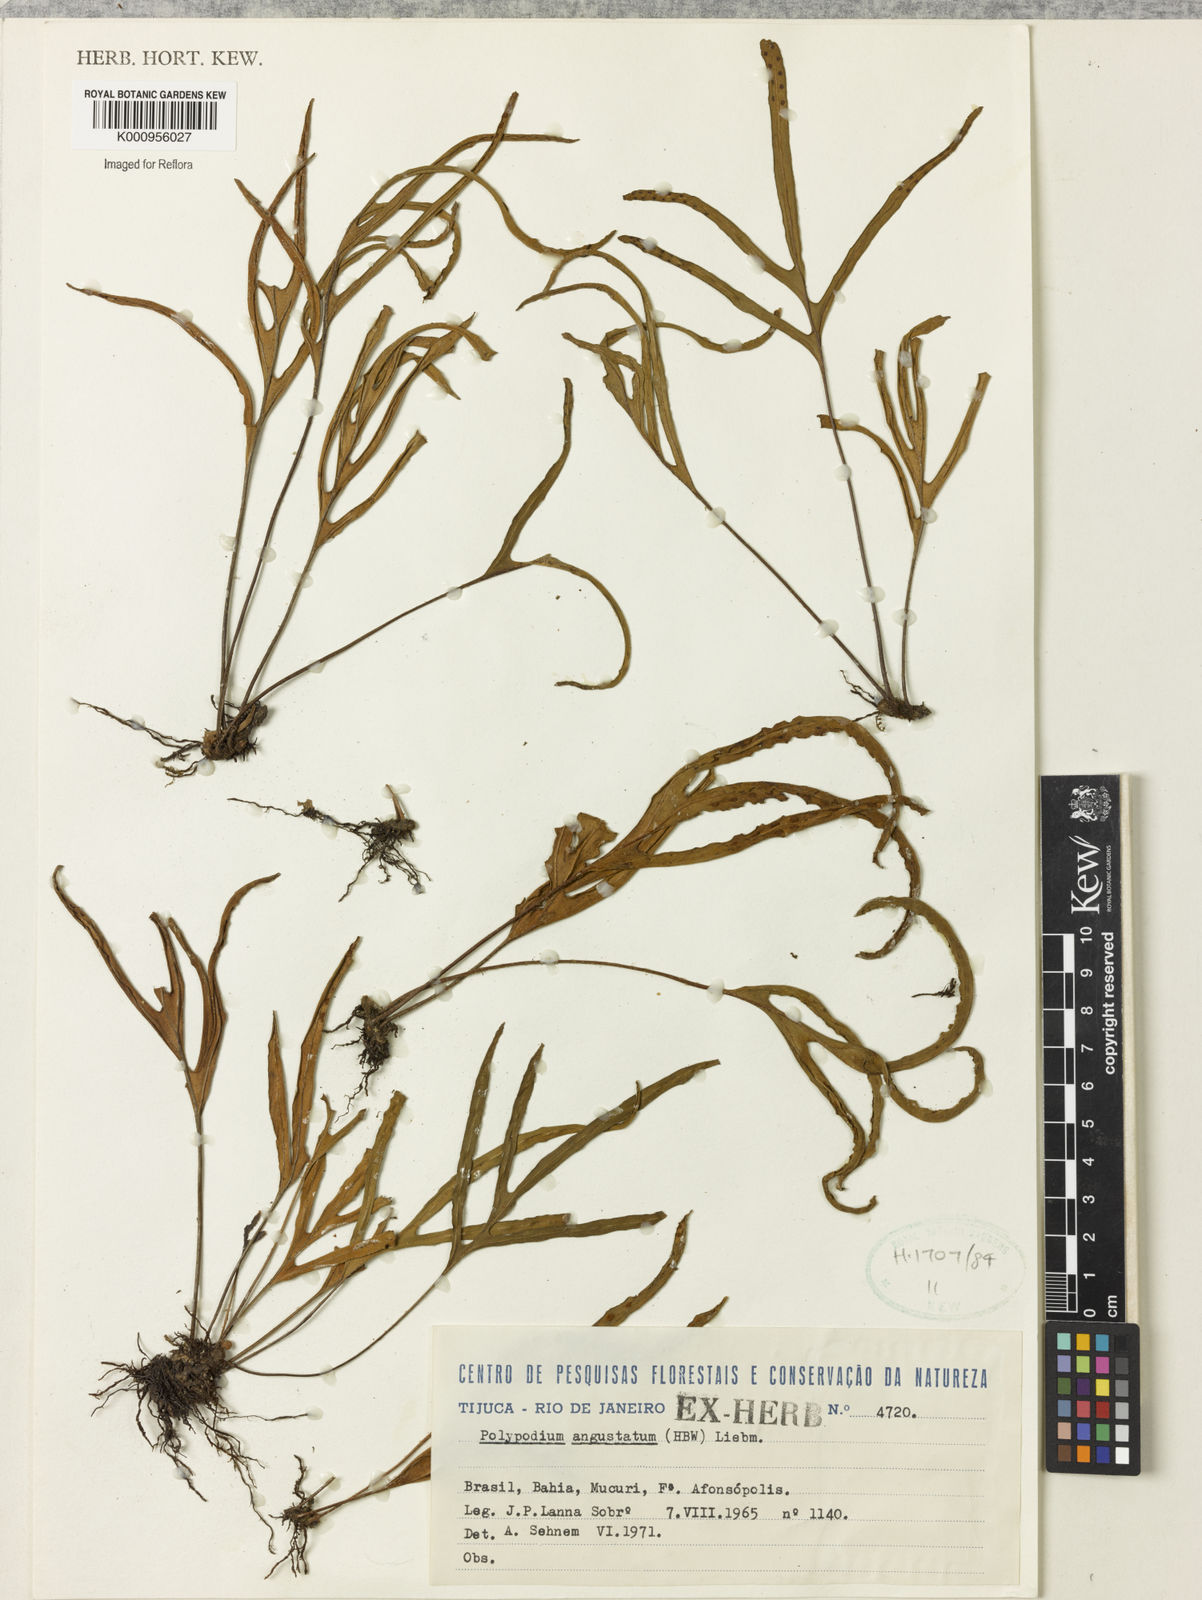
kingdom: Plantae
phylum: Tracheophyta
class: Polypodiopsida
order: Polypodiales
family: Polypodiaceae
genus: Pleopeltis
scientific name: Pleopeltis angusta
